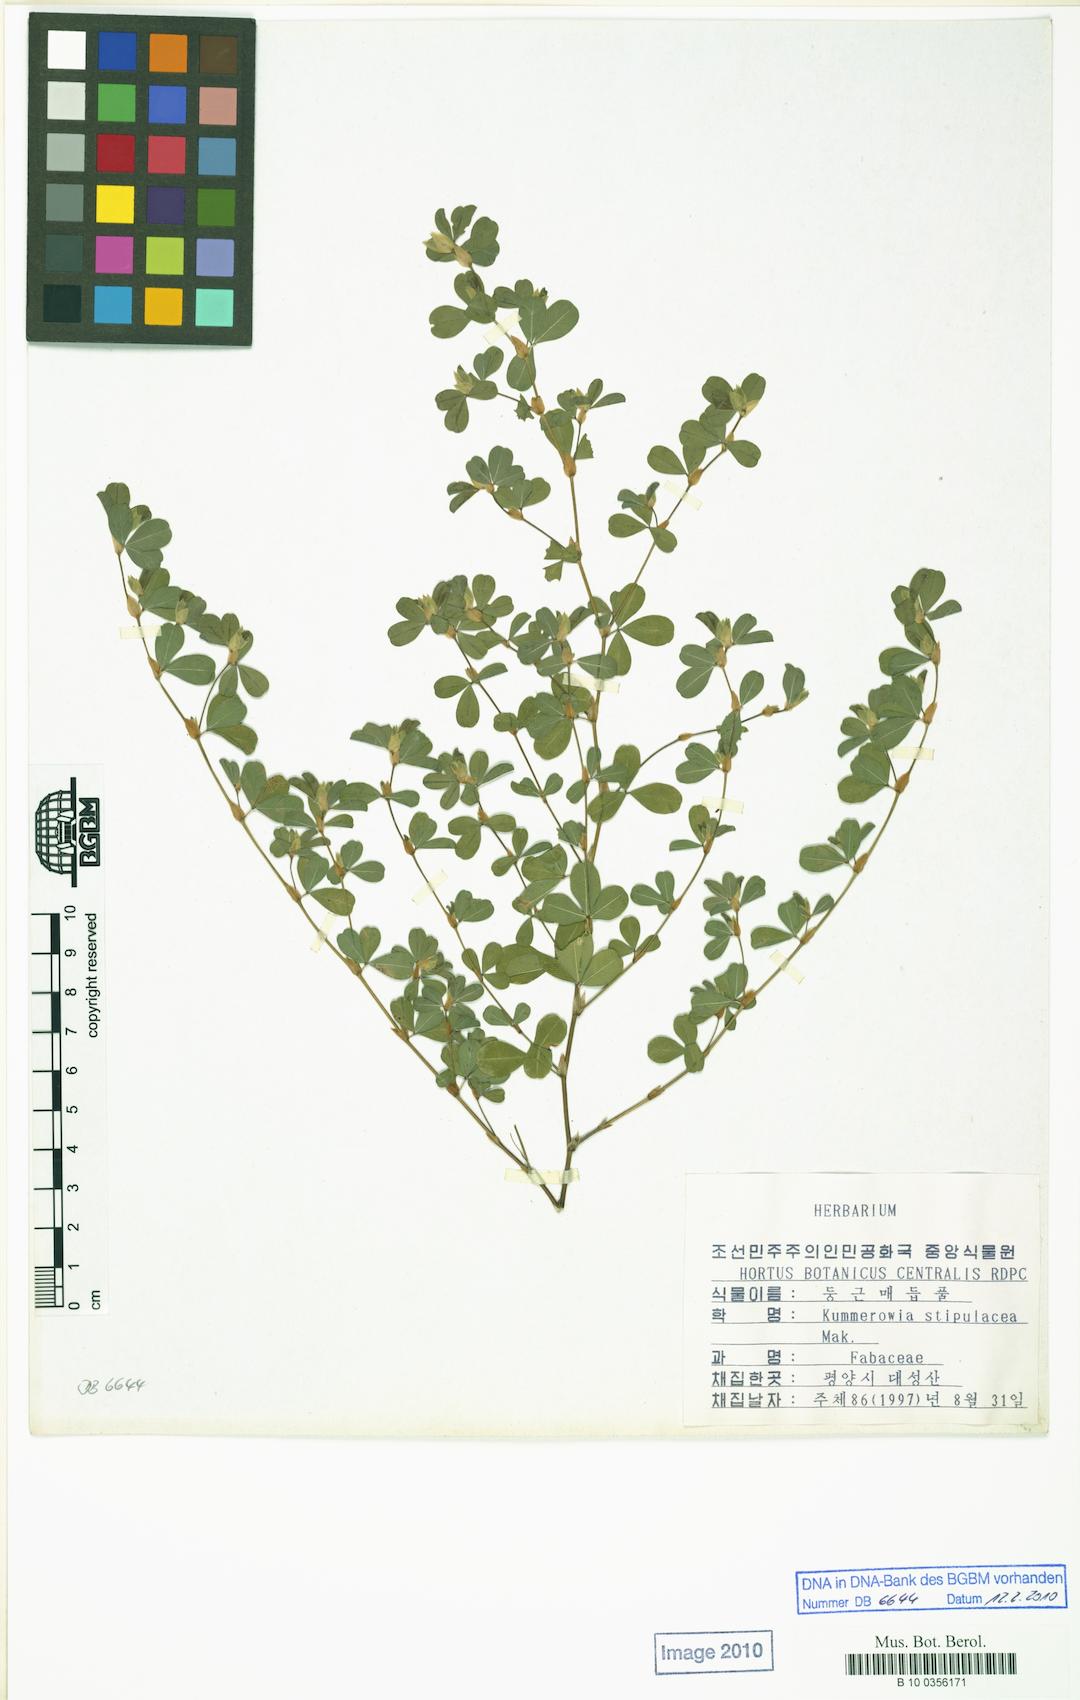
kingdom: Plantae
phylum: Tracheophyta
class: Magnoliopsida
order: Fabales
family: Fabaceae
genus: Kummerowia
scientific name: Kummerowia stipulacea
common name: Korean clover
